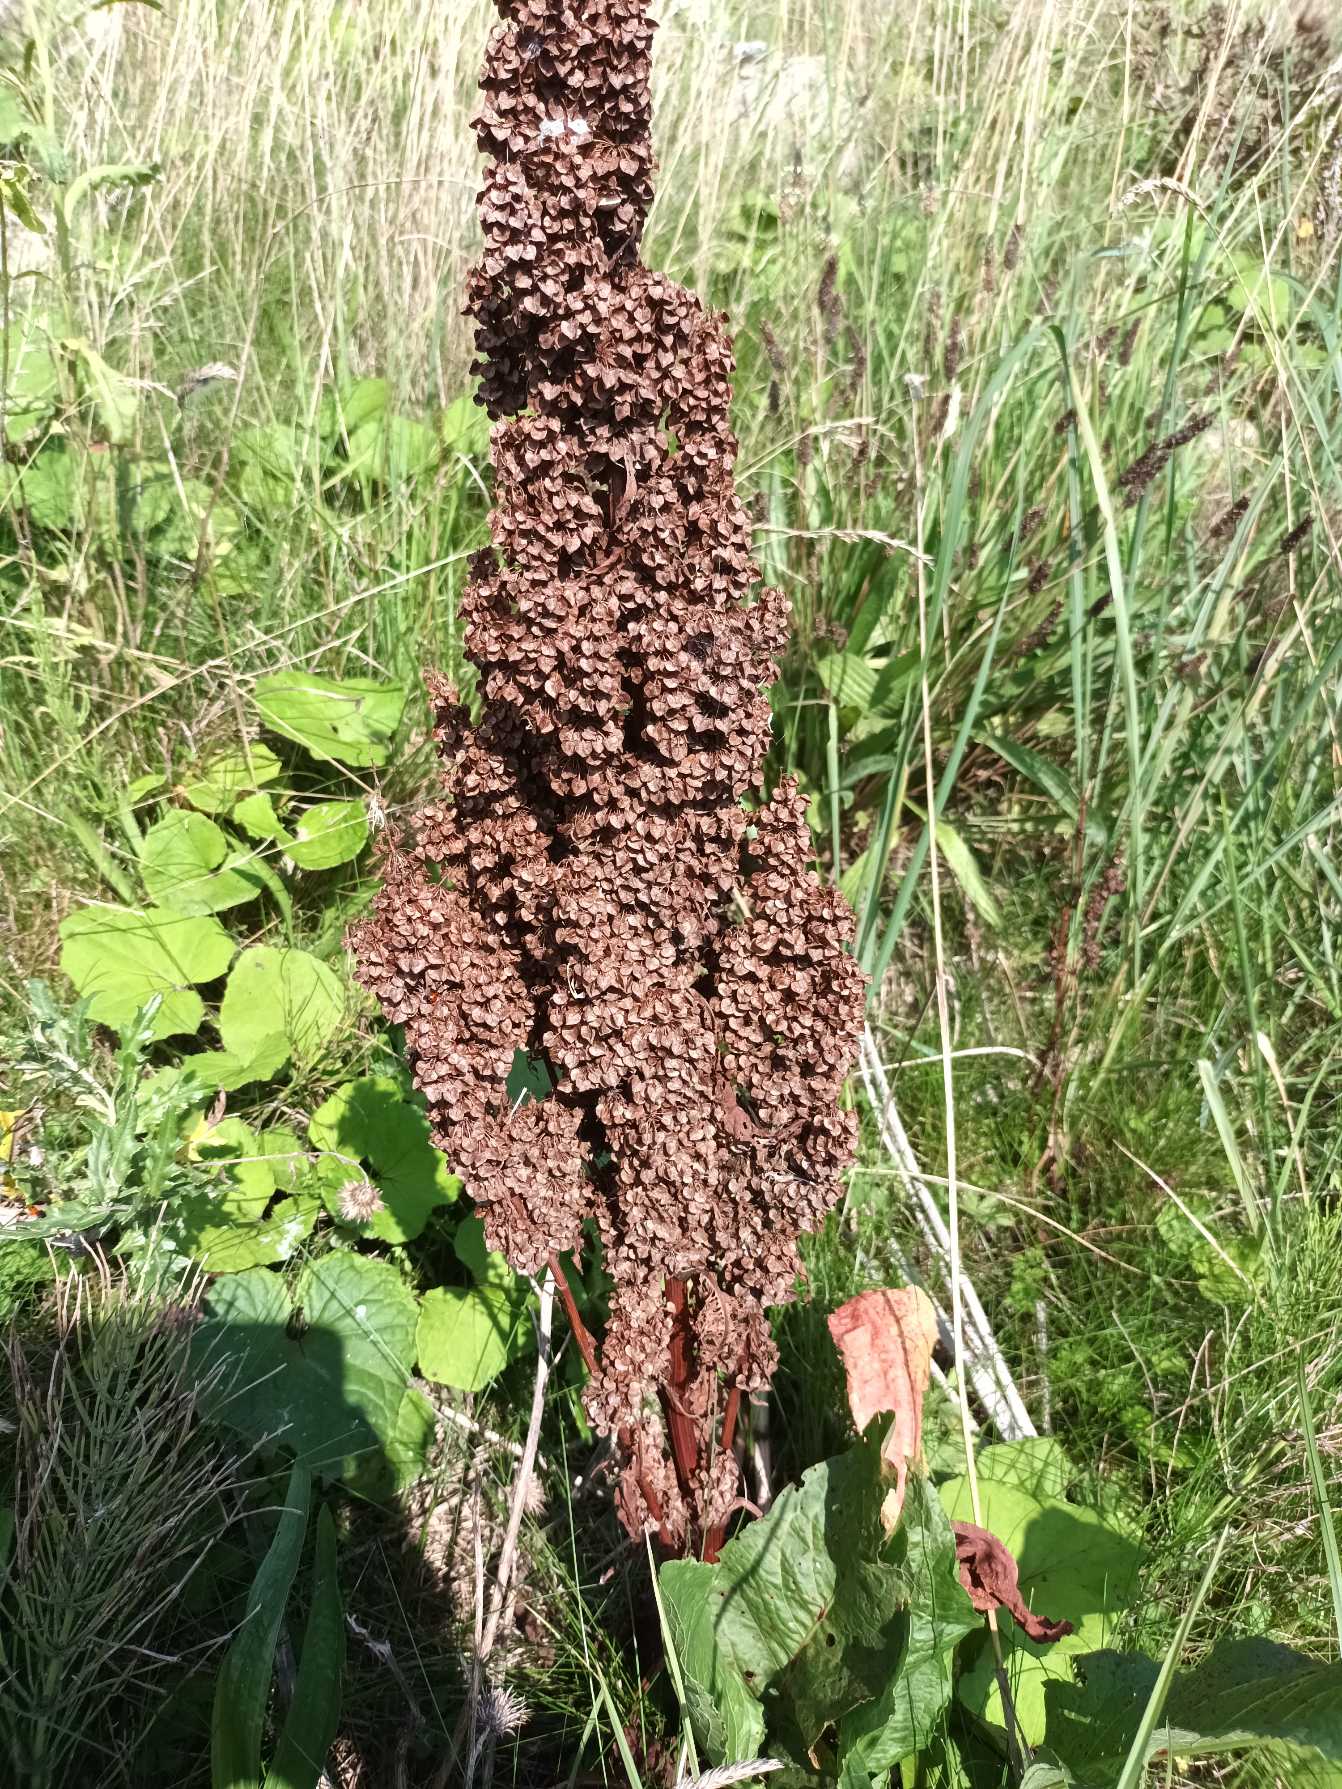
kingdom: Plantae
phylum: Tracheophyta
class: Magnoliopsida
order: Caryophyllales
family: Polygonaceae
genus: Rumex
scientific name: Rumex longifolius
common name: By-skræppe
